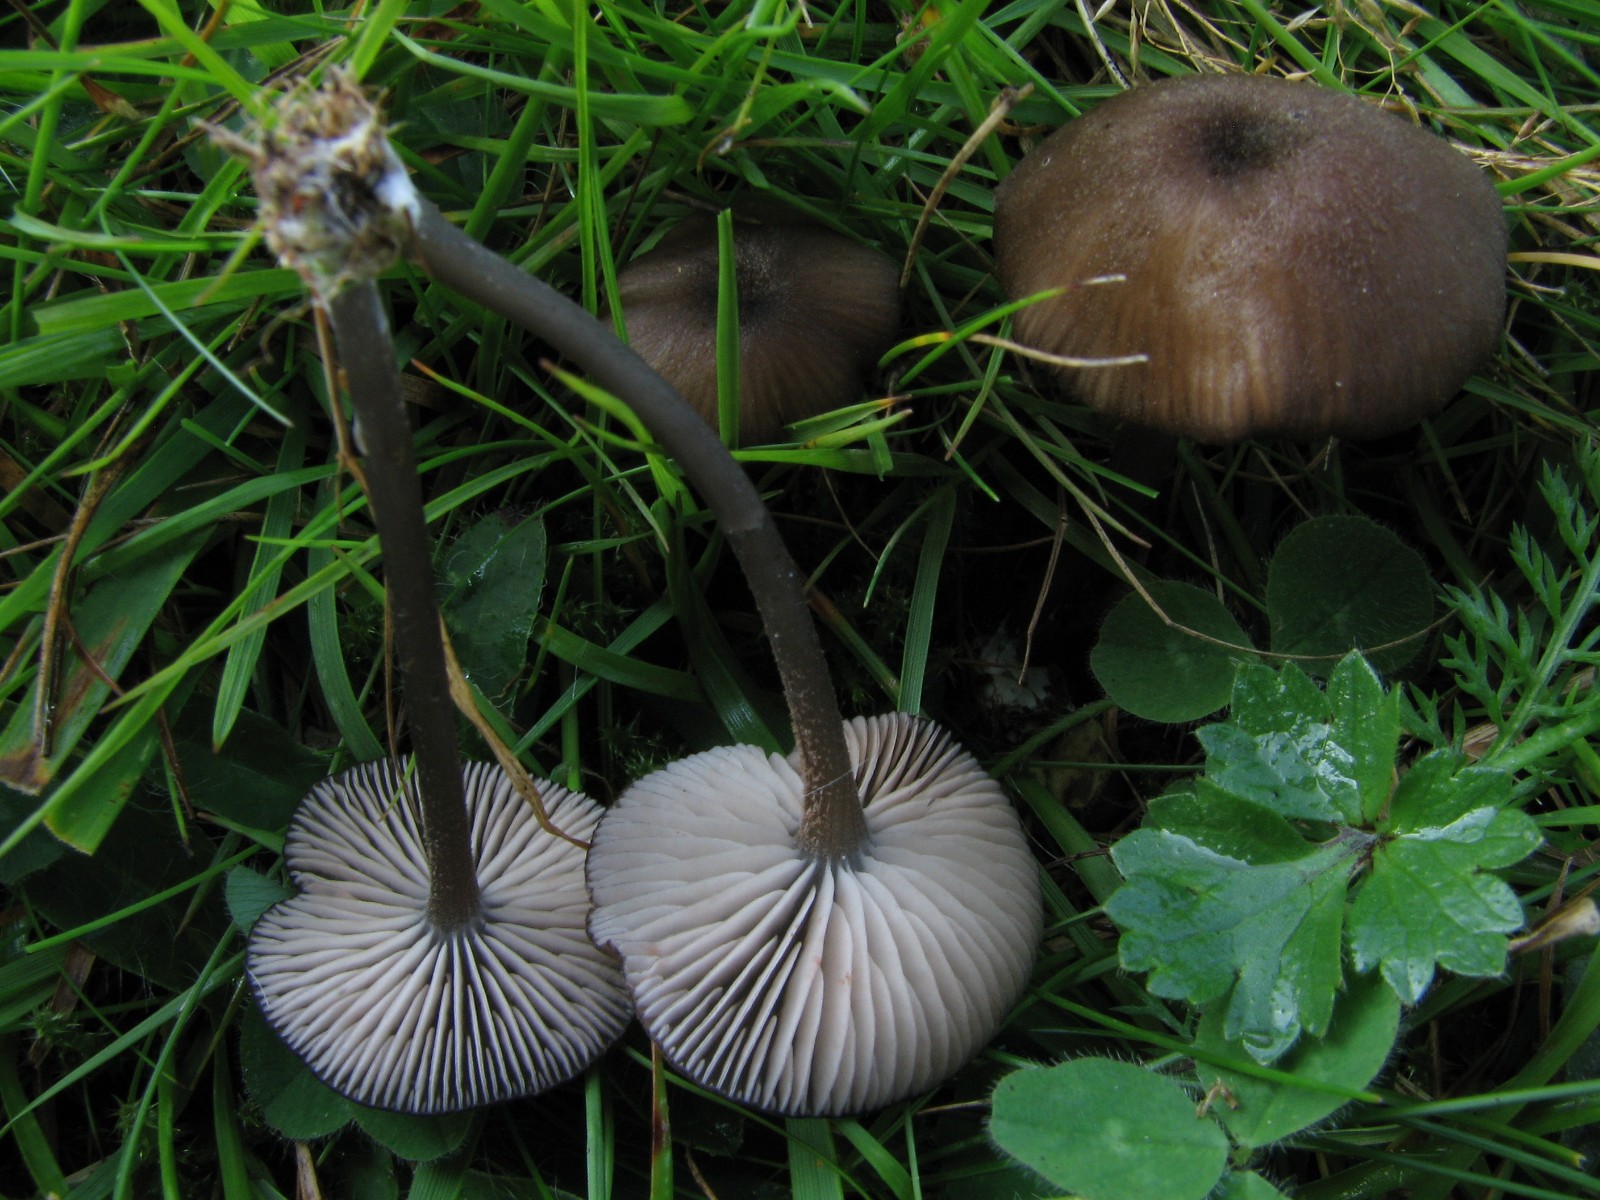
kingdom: Fungi
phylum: Basidiomycota
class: Agaricomycetes
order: Agaricales
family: Entolomataceae
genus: Entoloma
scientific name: Entoloma insidiosum
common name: ru rødblad
